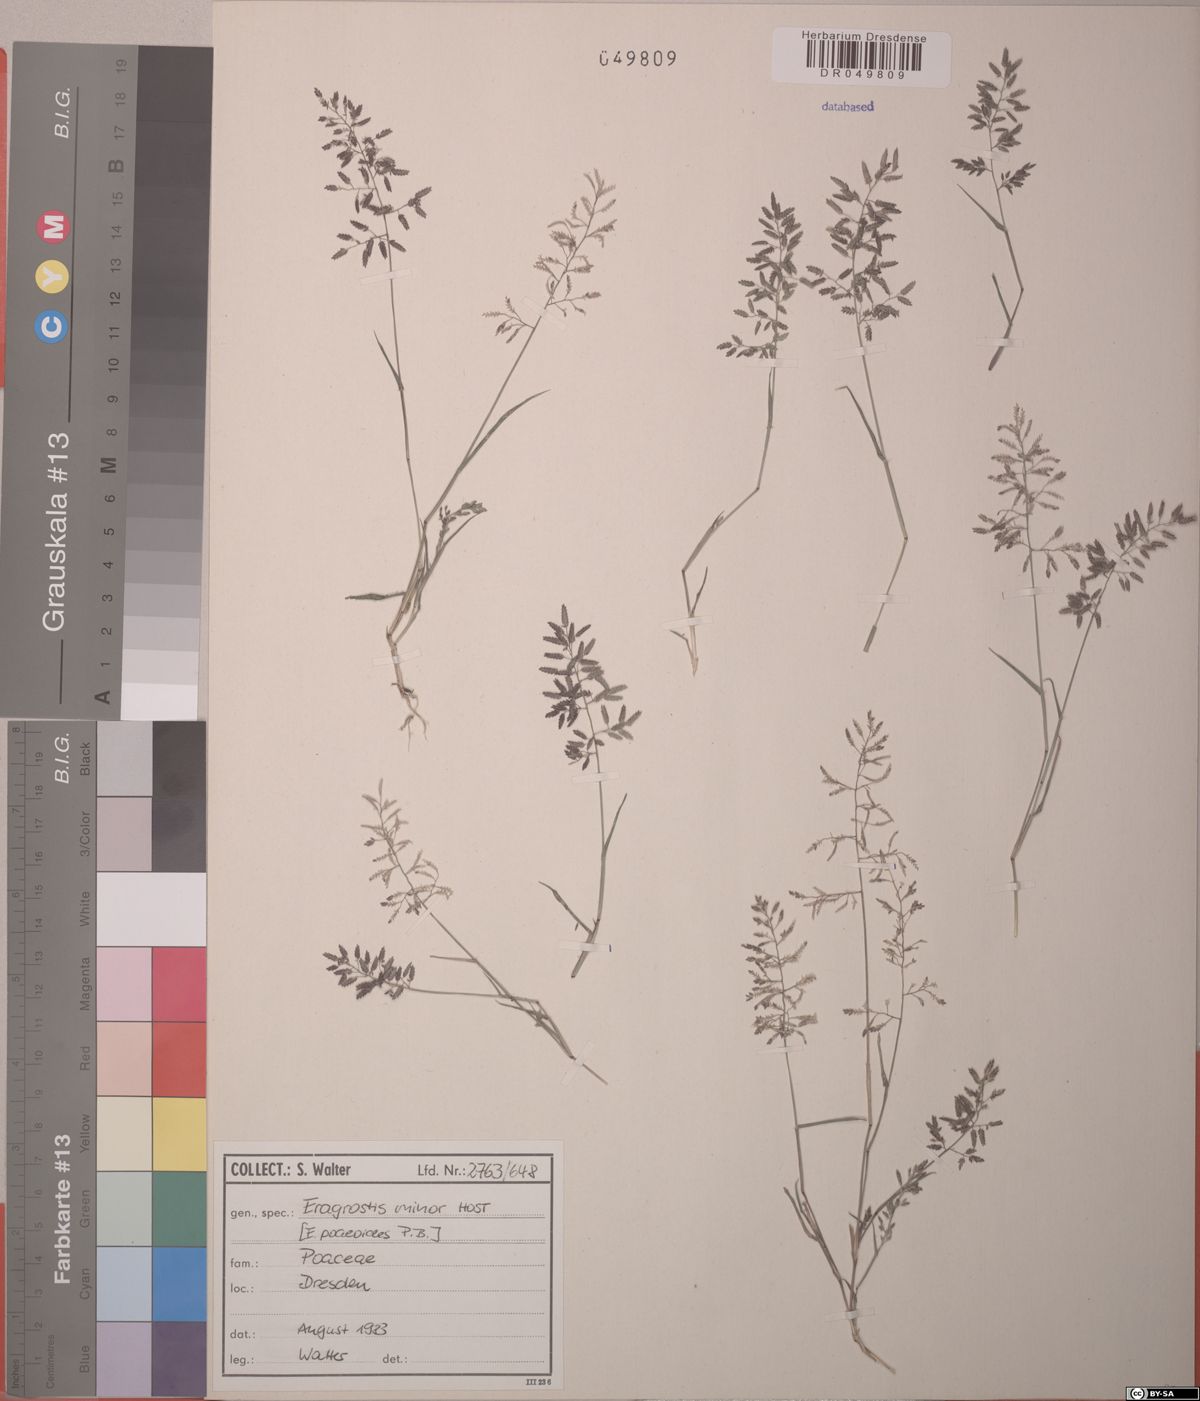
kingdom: Plantae
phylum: Tracheophyta
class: Liliopsida
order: Poales
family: Poaceae
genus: Eragrostis
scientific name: Eragrostis minor
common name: Small love-grass
